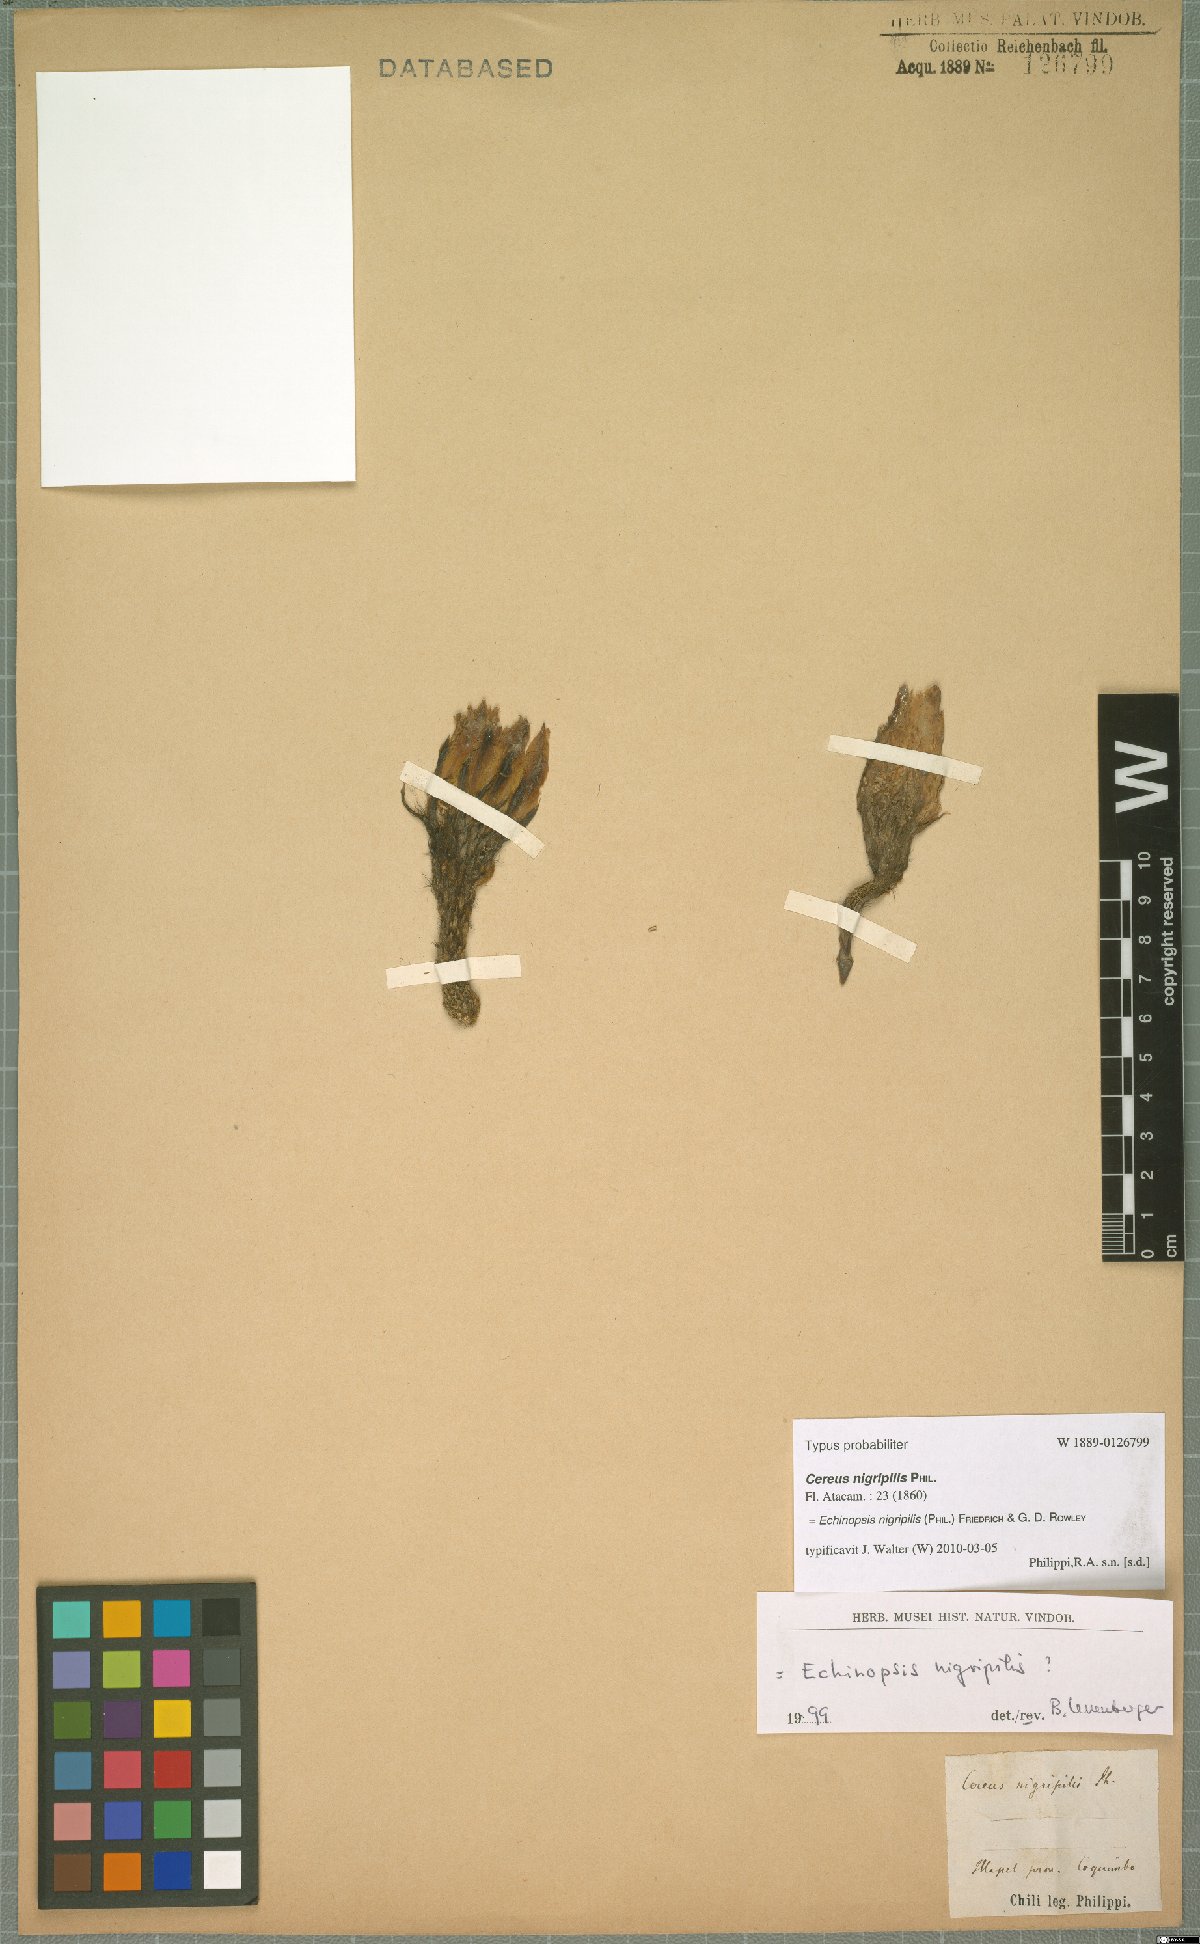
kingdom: Plantae
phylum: Tracheophyta
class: Magnoliopsida
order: Caryophyllales
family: Cactaceae
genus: Leucostele
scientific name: Leucostele nigripilis
